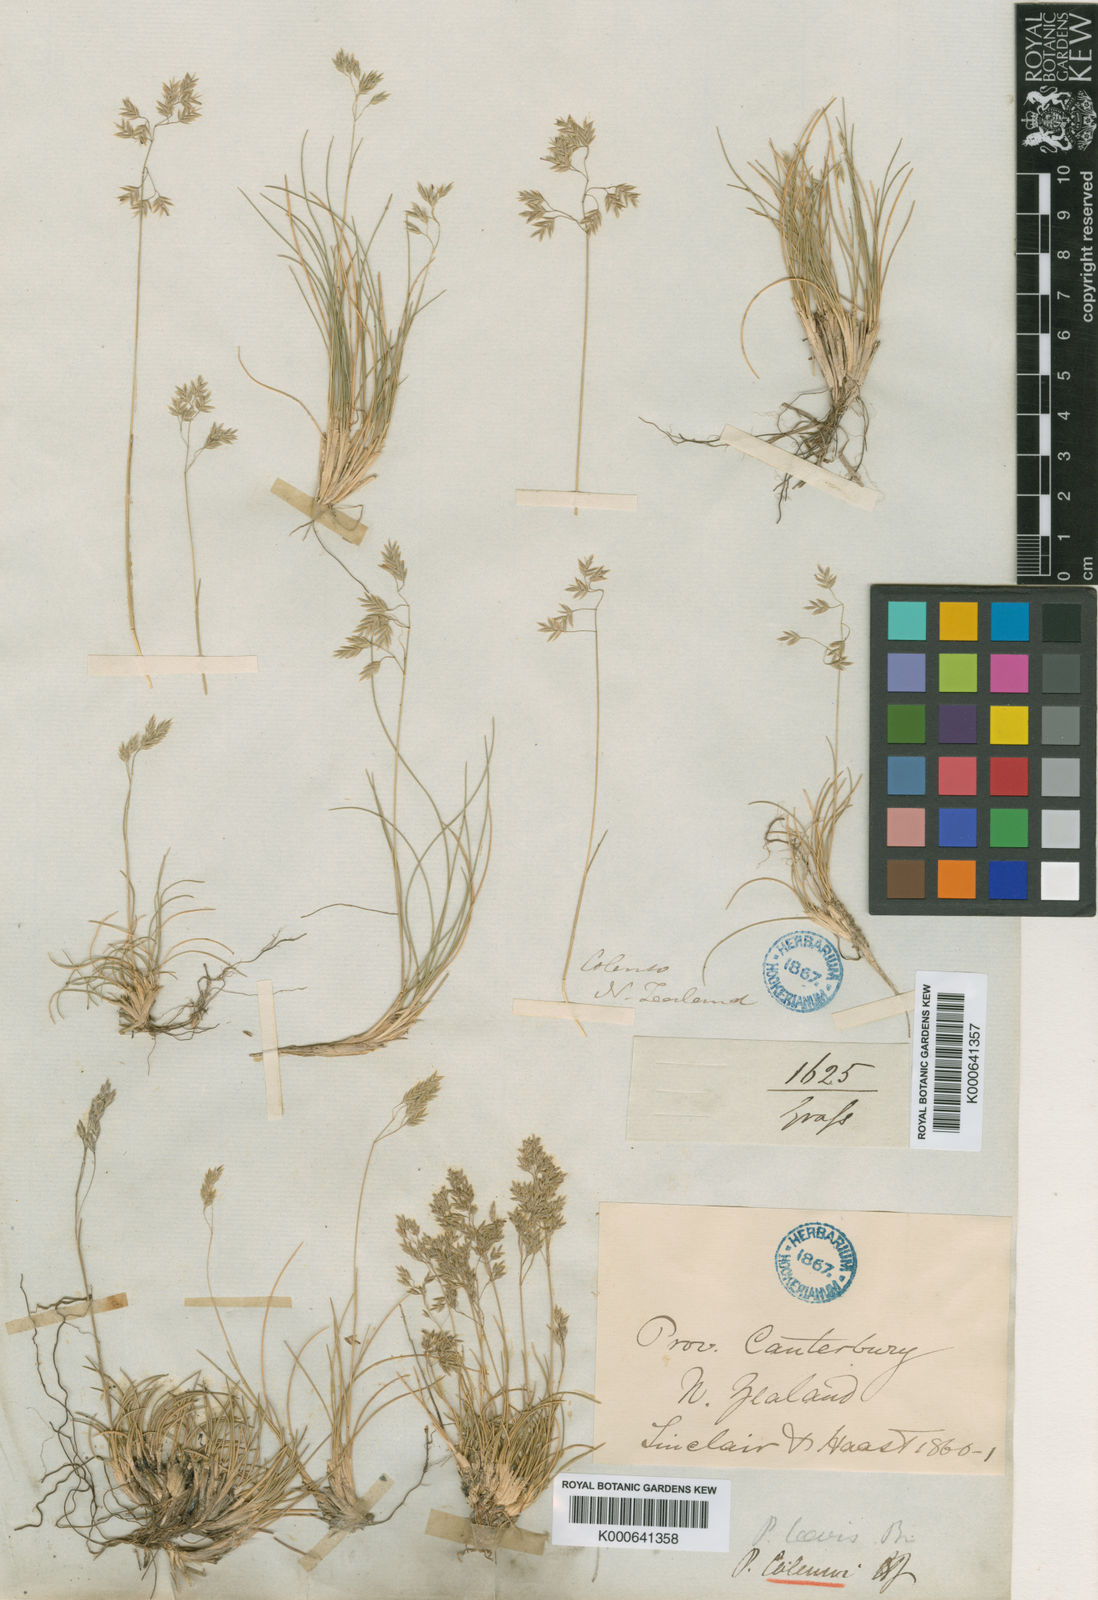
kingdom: Plantae
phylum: Tracheophyta
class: Liliopsida
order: Poales
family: Poaceae
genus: Poa
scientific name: Poa colensoi
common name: Blue tussock
